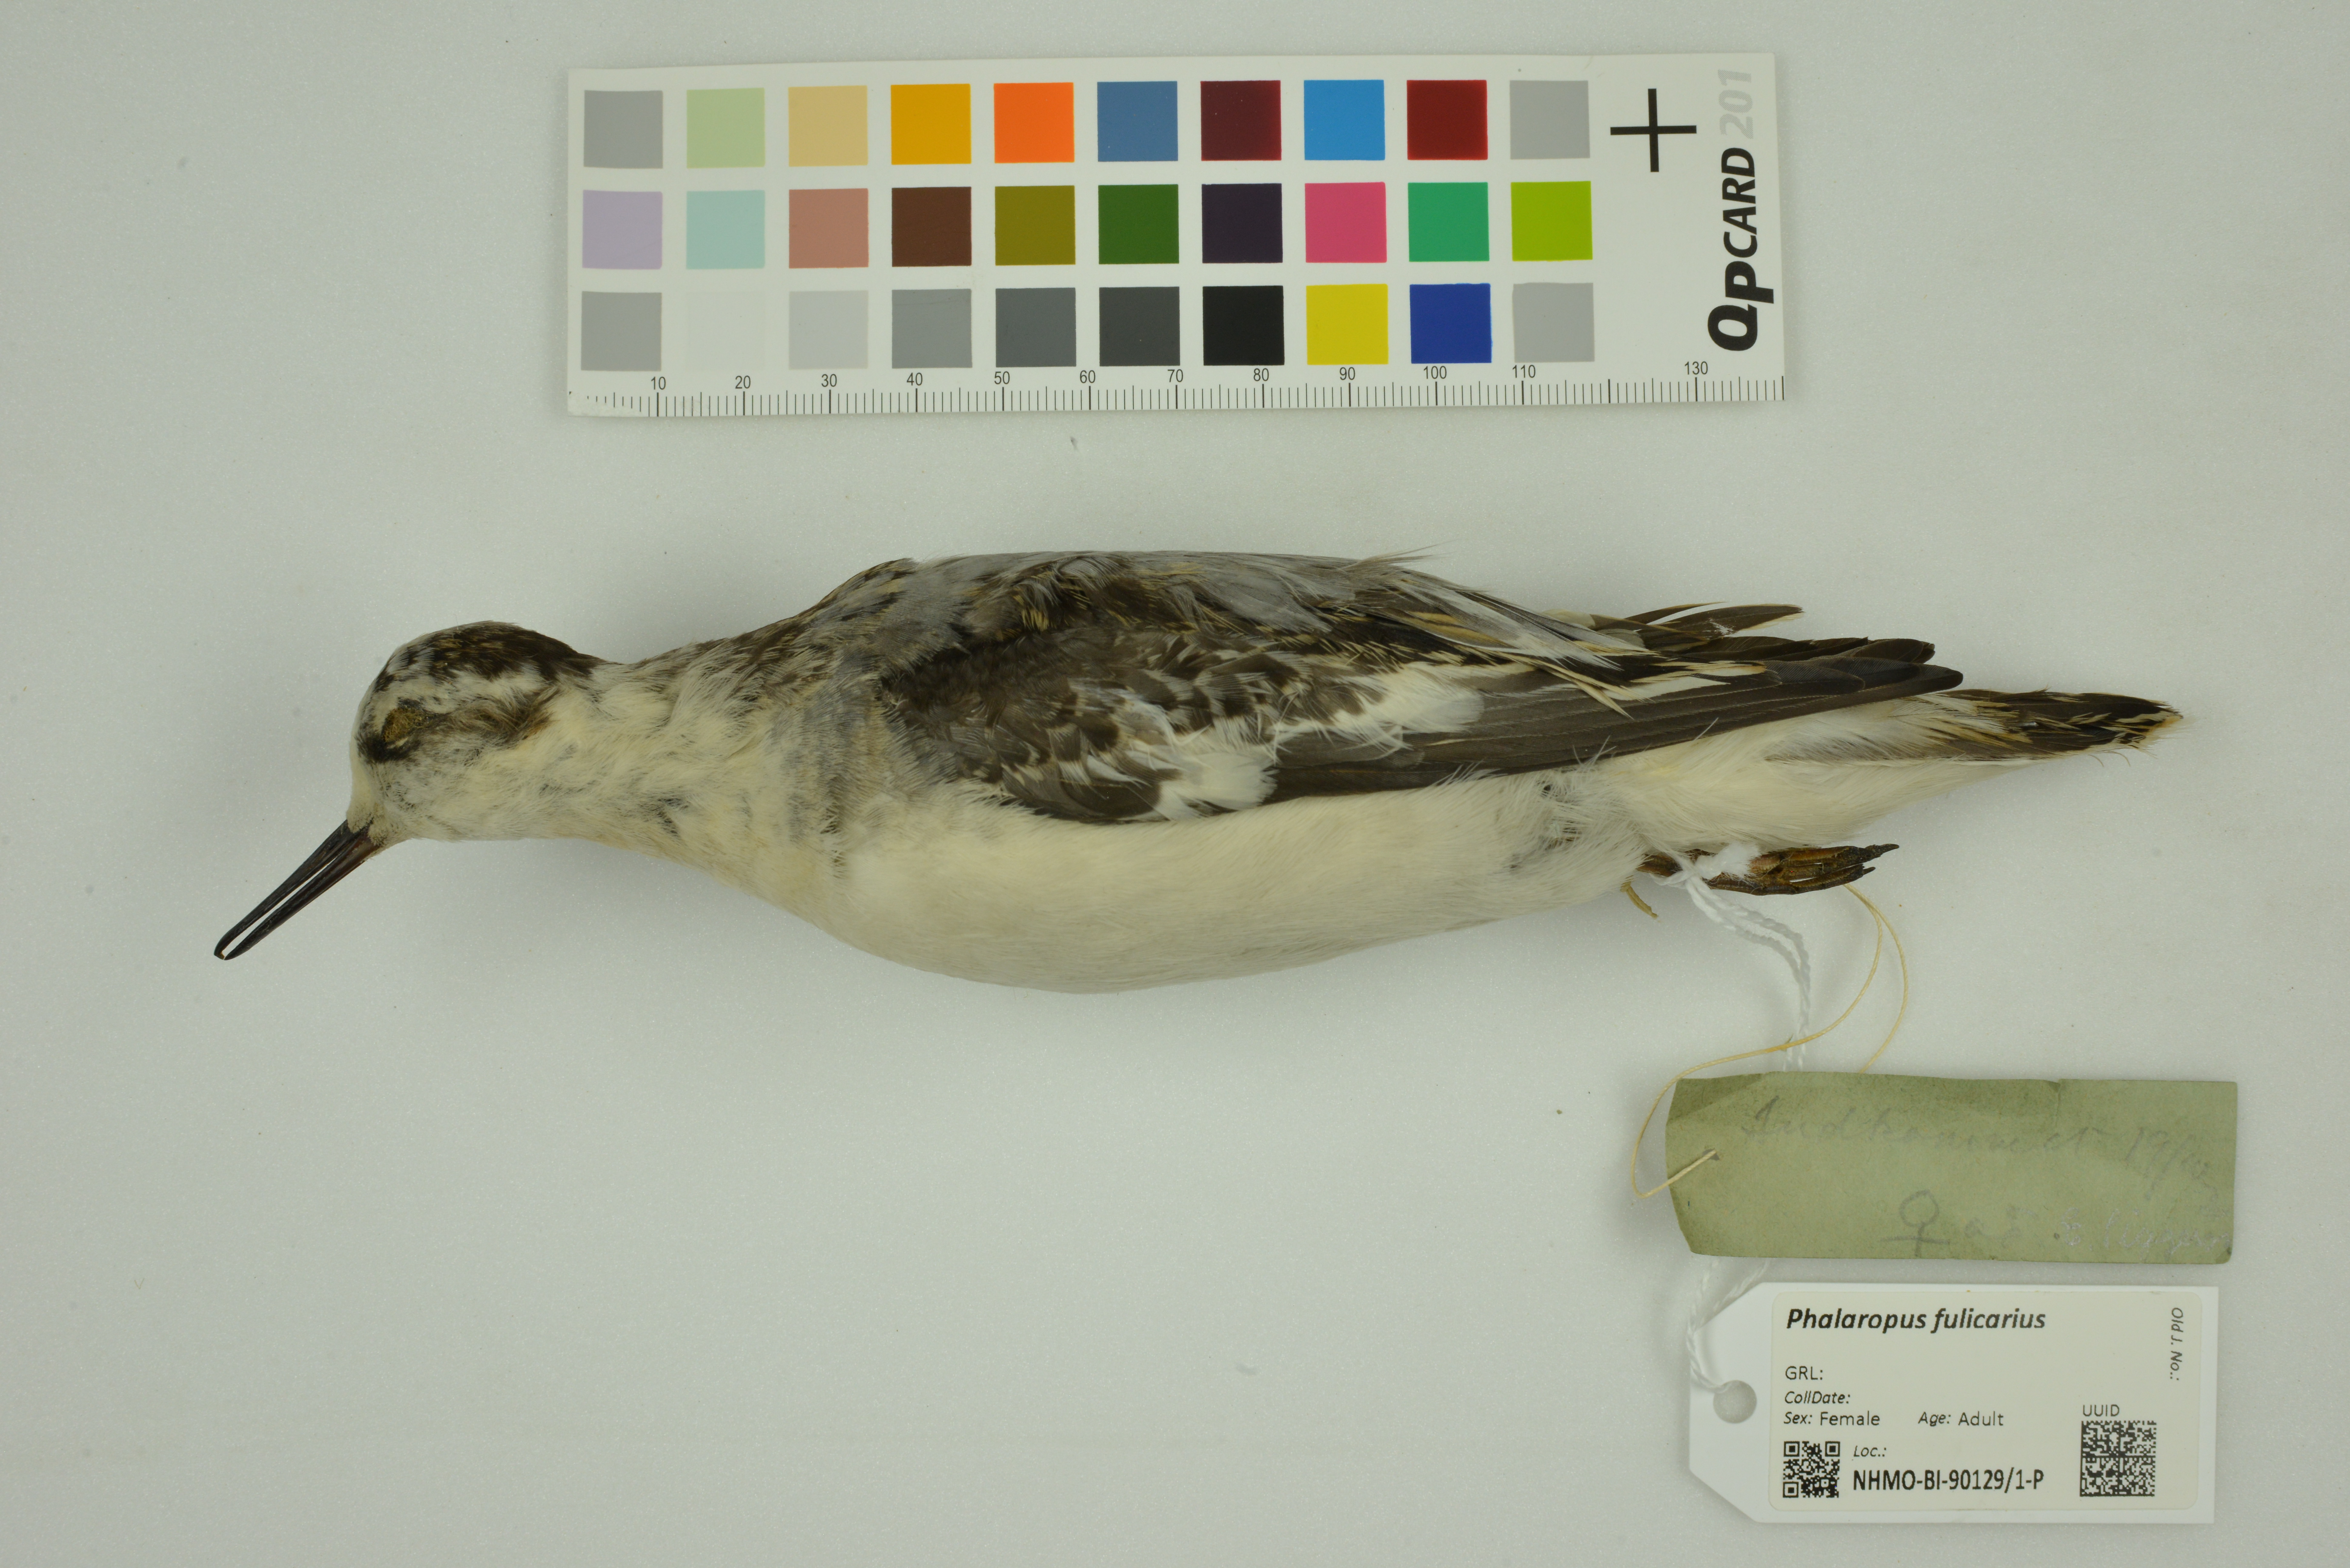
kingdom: Animalia
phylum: Chordata
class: Aves
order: Charadriiformes
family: Scolopacidae
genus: Phalaropus
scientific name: Phalaropus fulicarius
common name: Red phalarope
